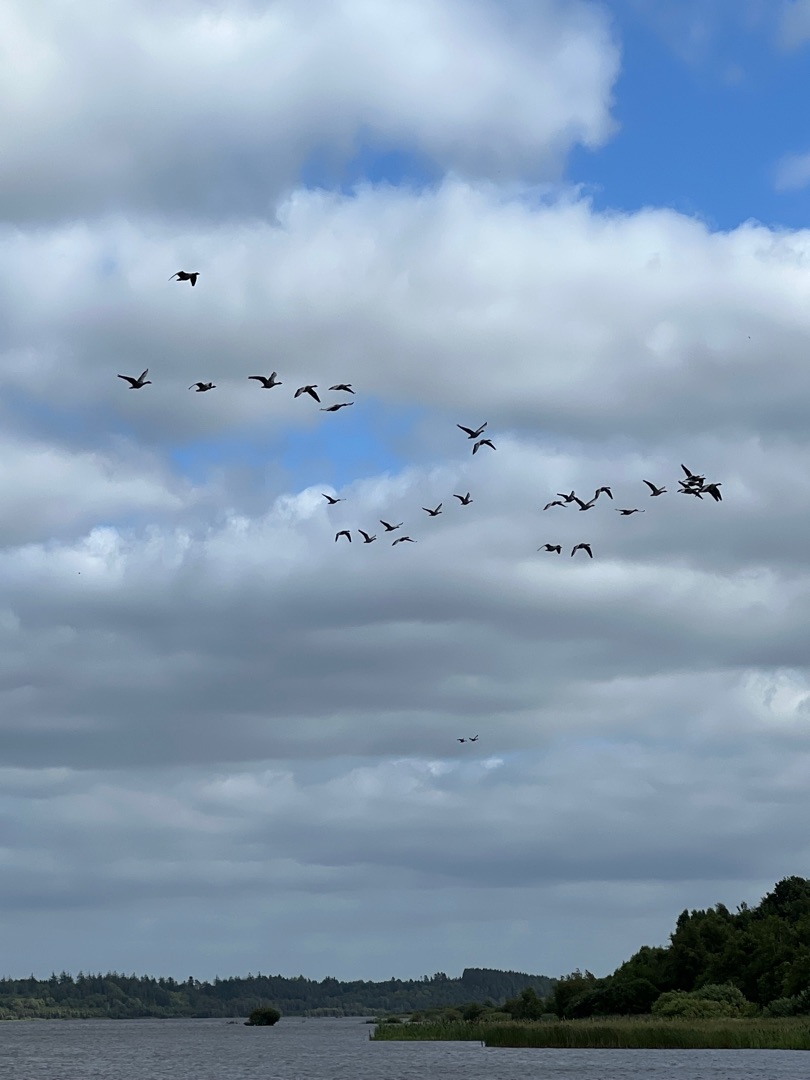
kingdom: Animalia
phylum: Chordata
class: Aves
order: Anseriformes
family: Anatidae
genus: Anser
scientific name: Anser anser
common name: Grågås
